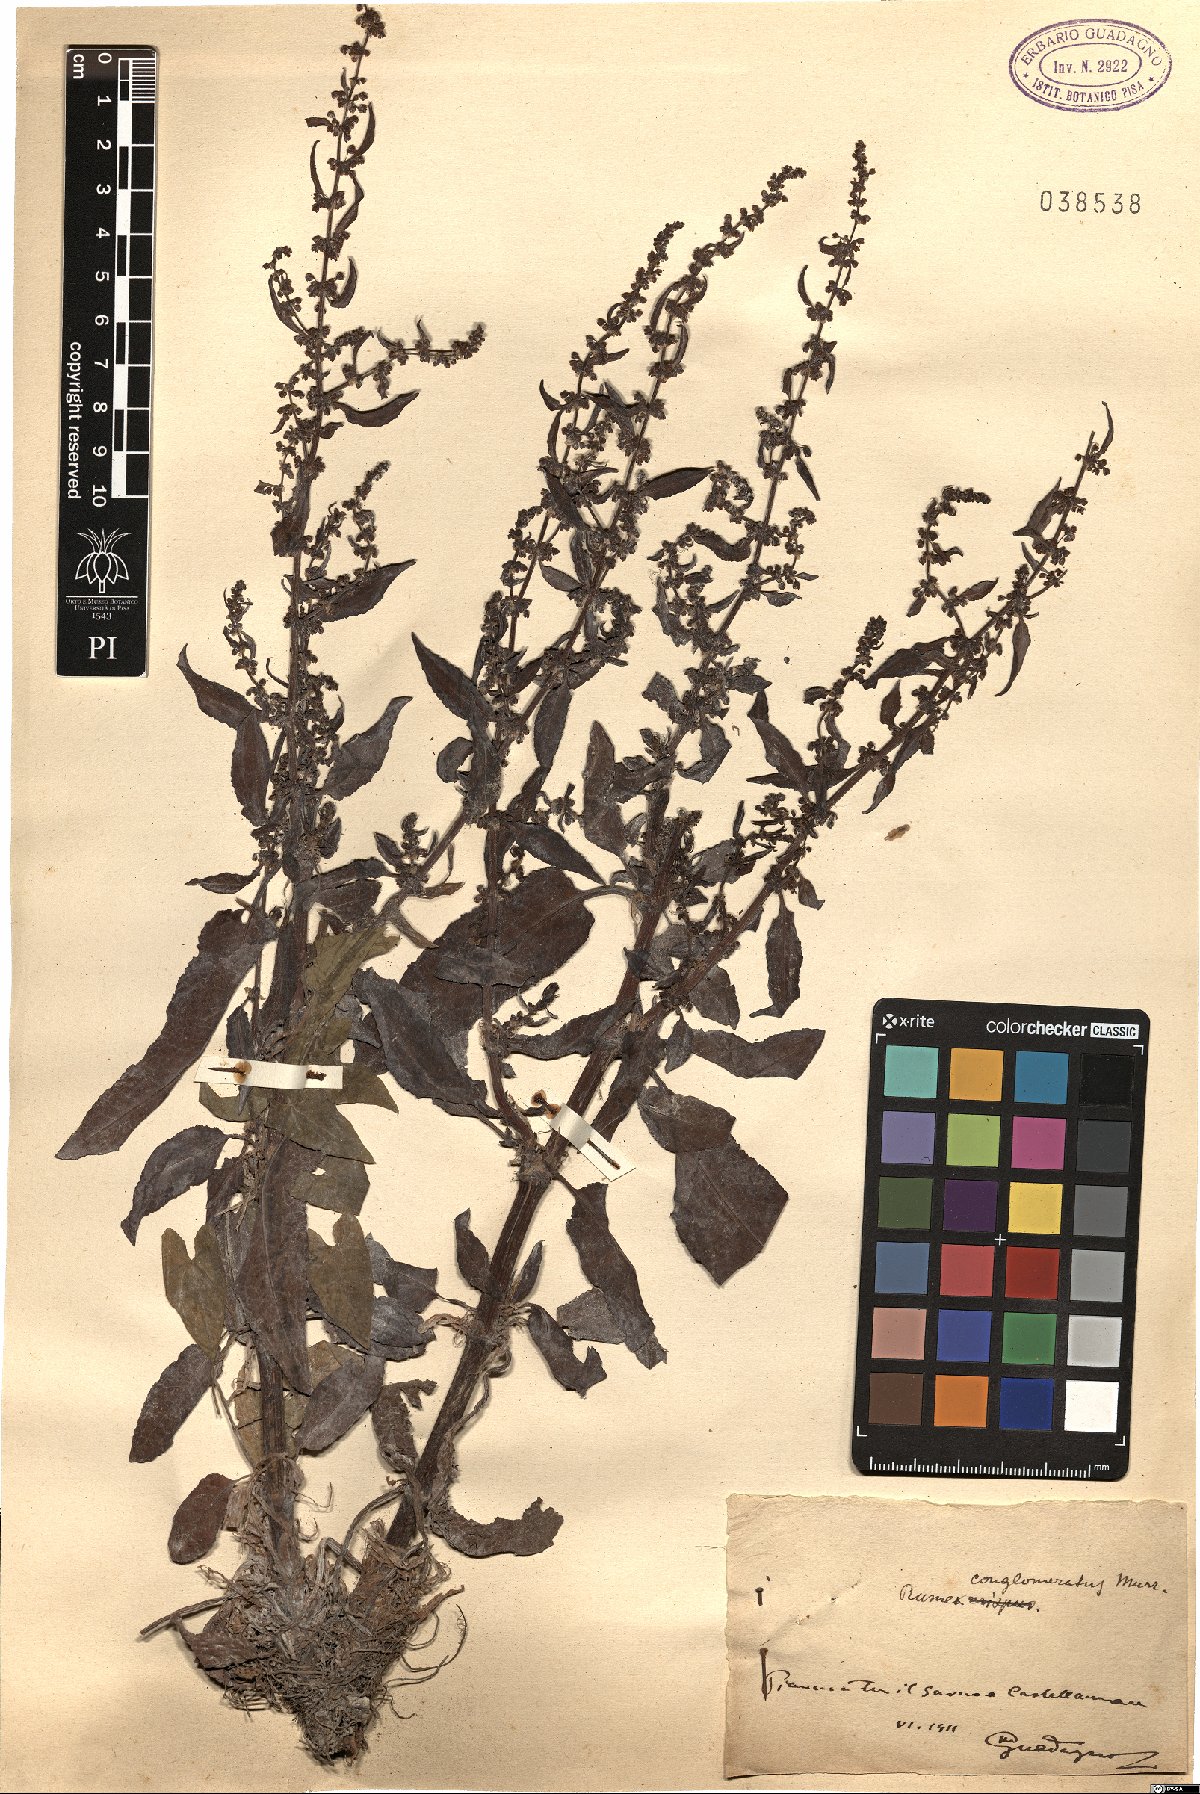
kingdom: Plantae
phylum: Tracheophyta
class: Magnoliopsida
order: Caryophyllales
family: Polygonaceae
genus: Rumex
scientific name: Rumex conglomeratus
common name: Clustered dock
